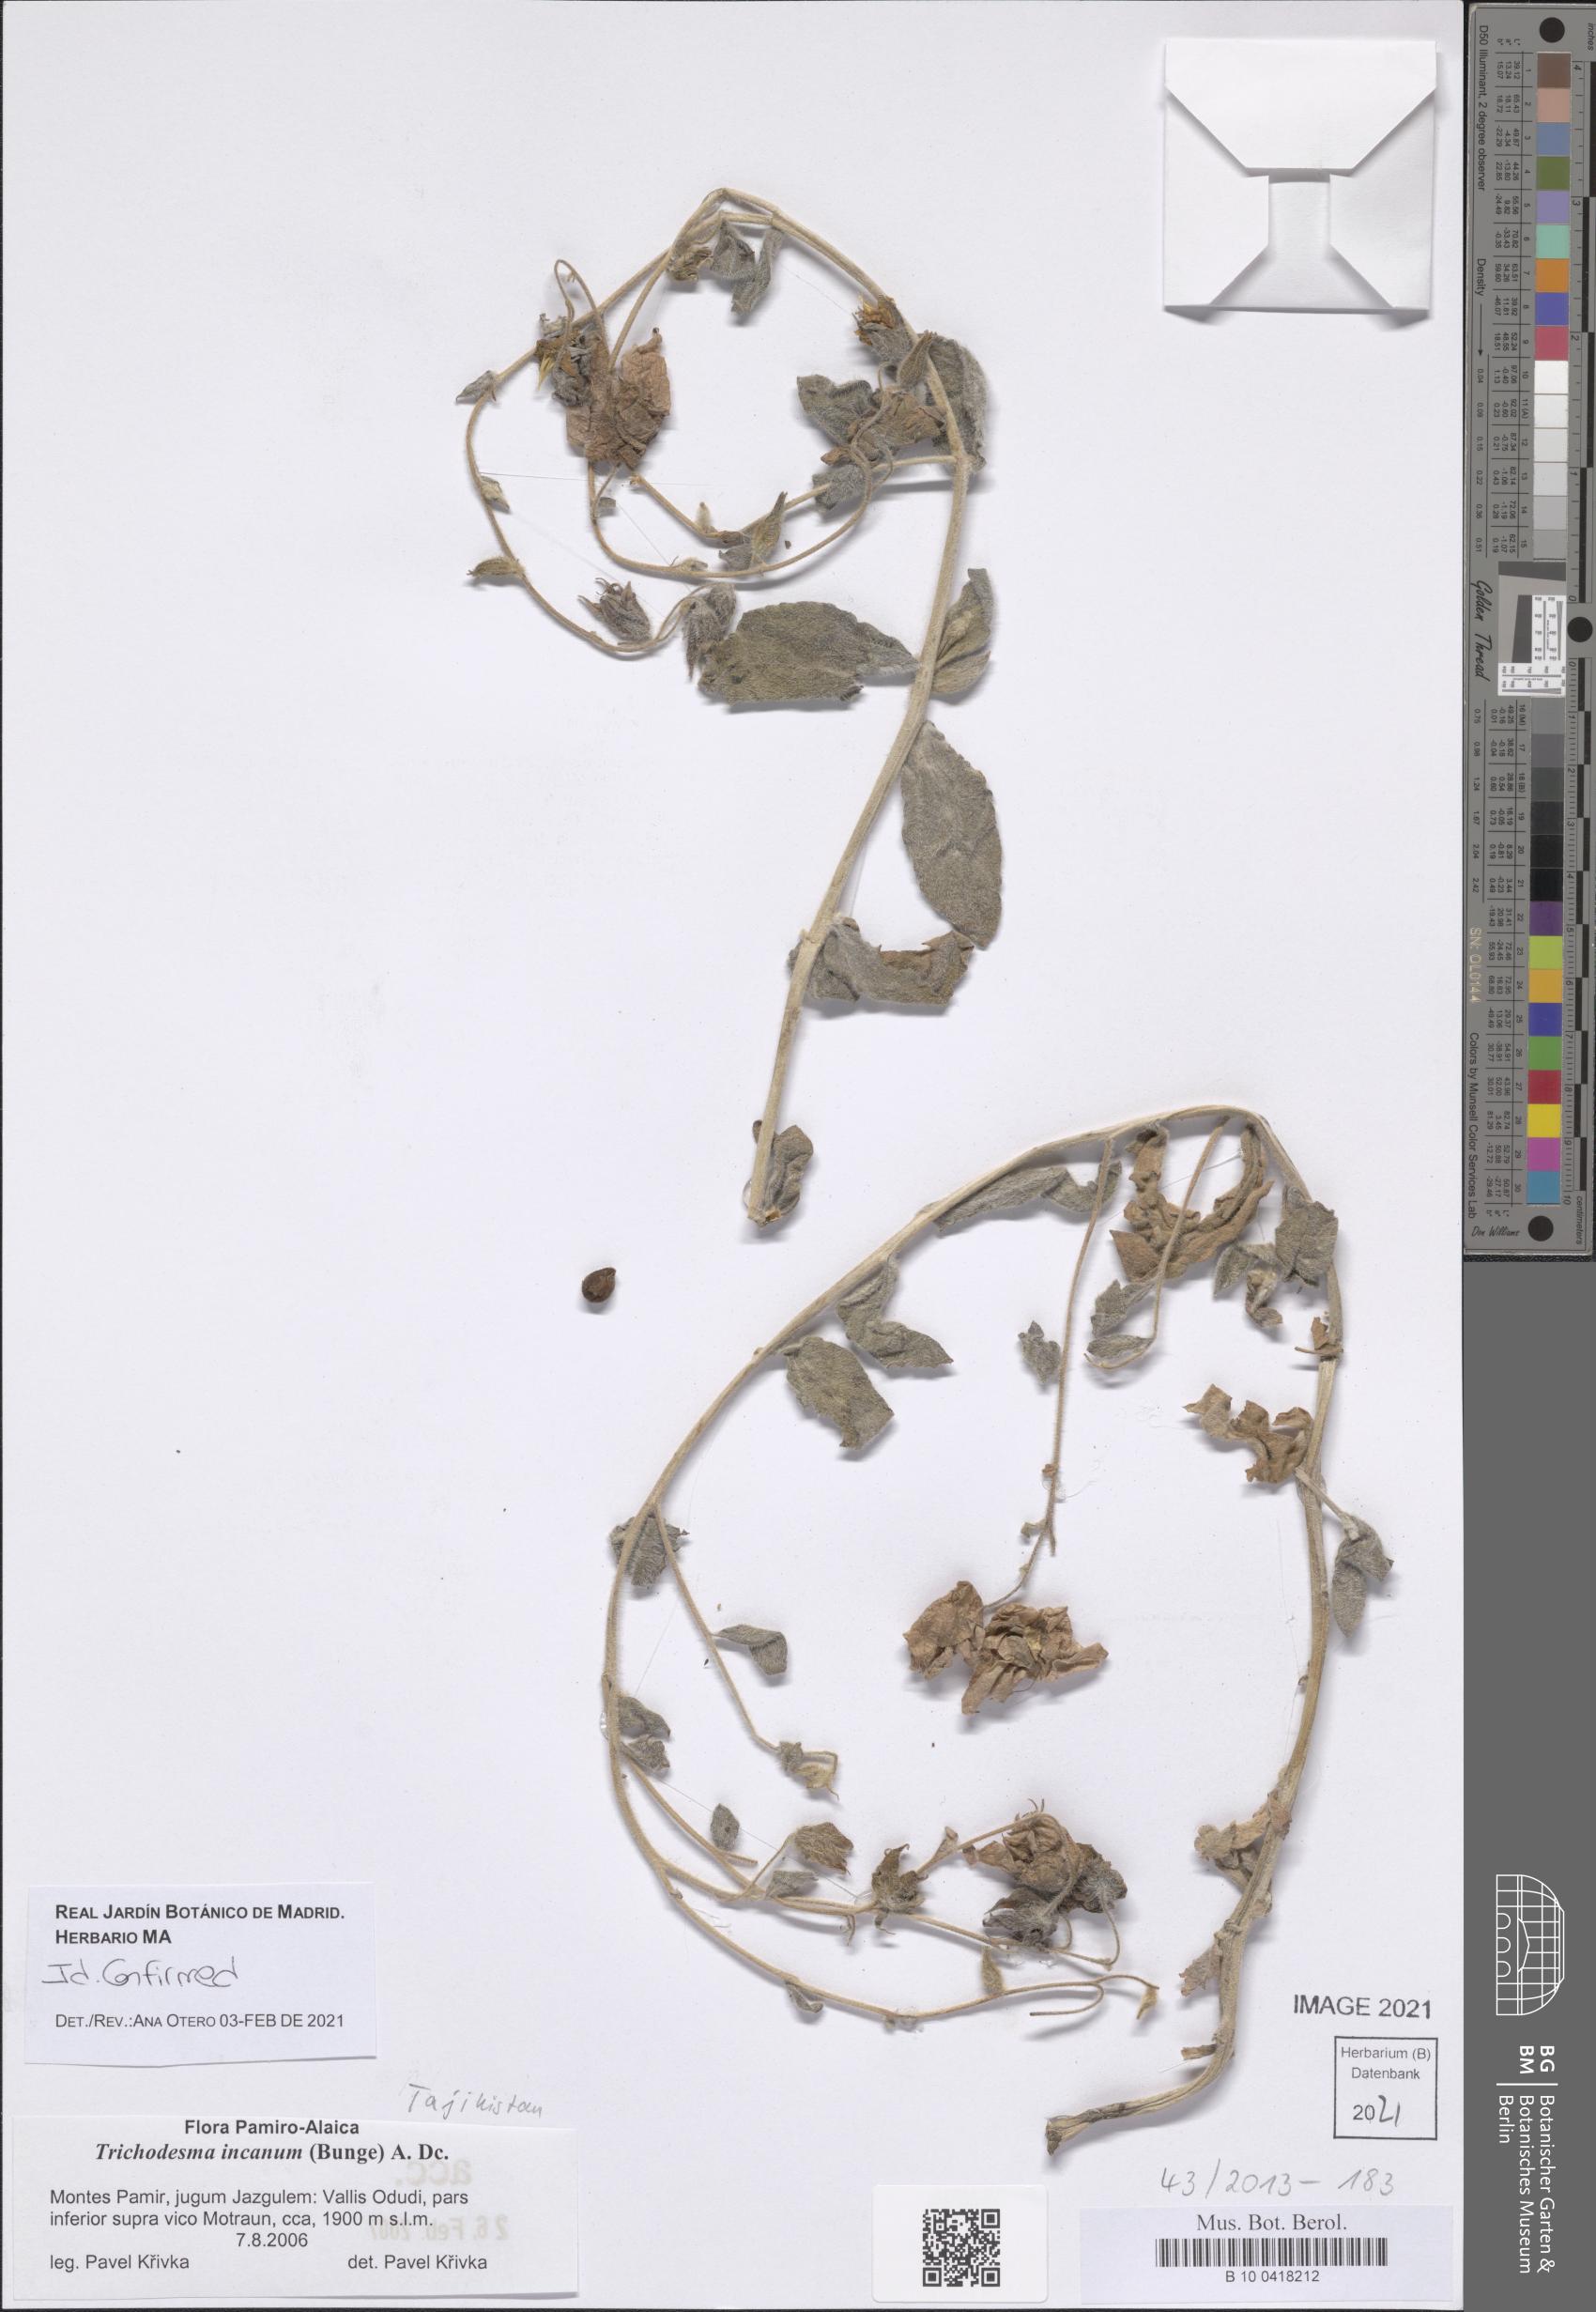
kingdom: Plantae
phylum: Tracheophyta
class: Magnoliopsida
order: Boraginales
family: Boraginaceae
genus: Trichodesma
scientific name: Trichodesma incanum
